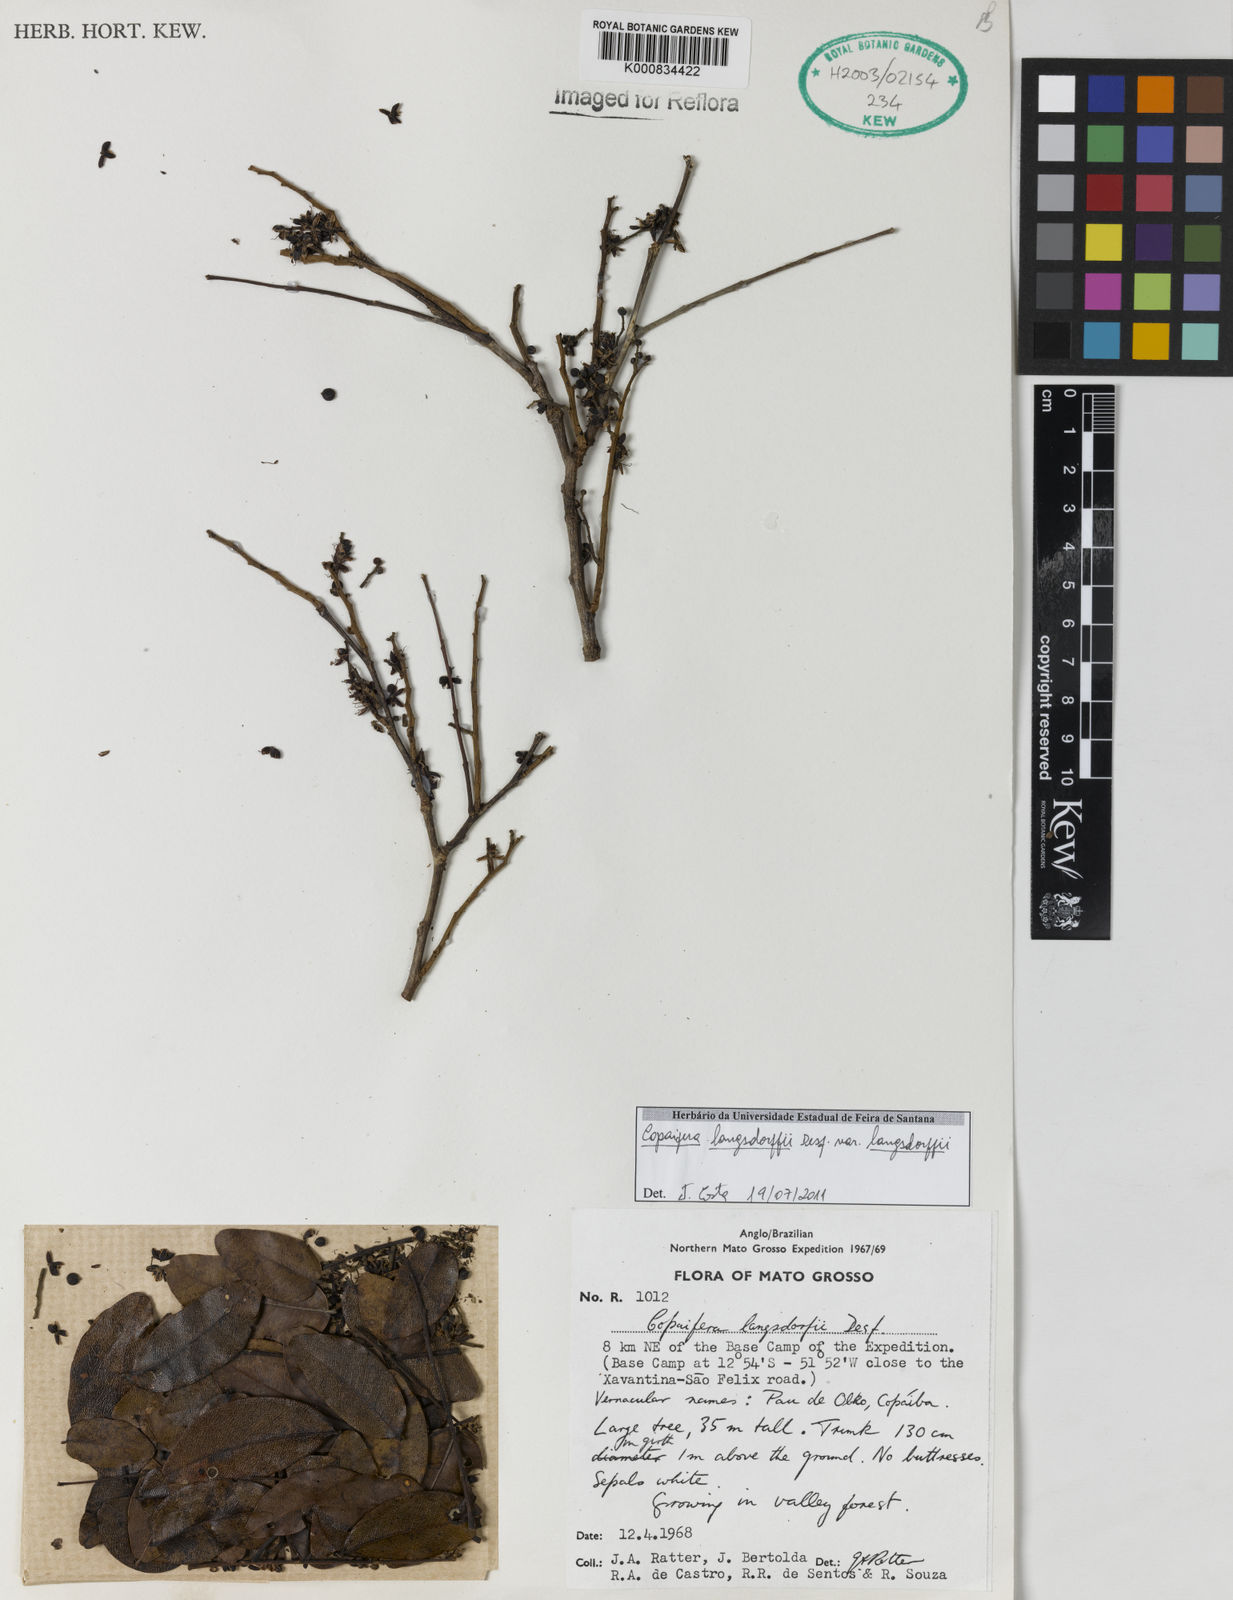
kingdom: Plantae
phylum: Tracheophyta
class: Magnoliopsida
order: Fabales
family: Fabaceae
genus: Copaifera
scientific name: Copaifera langsdorffii
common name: Brazilian diesel tree
